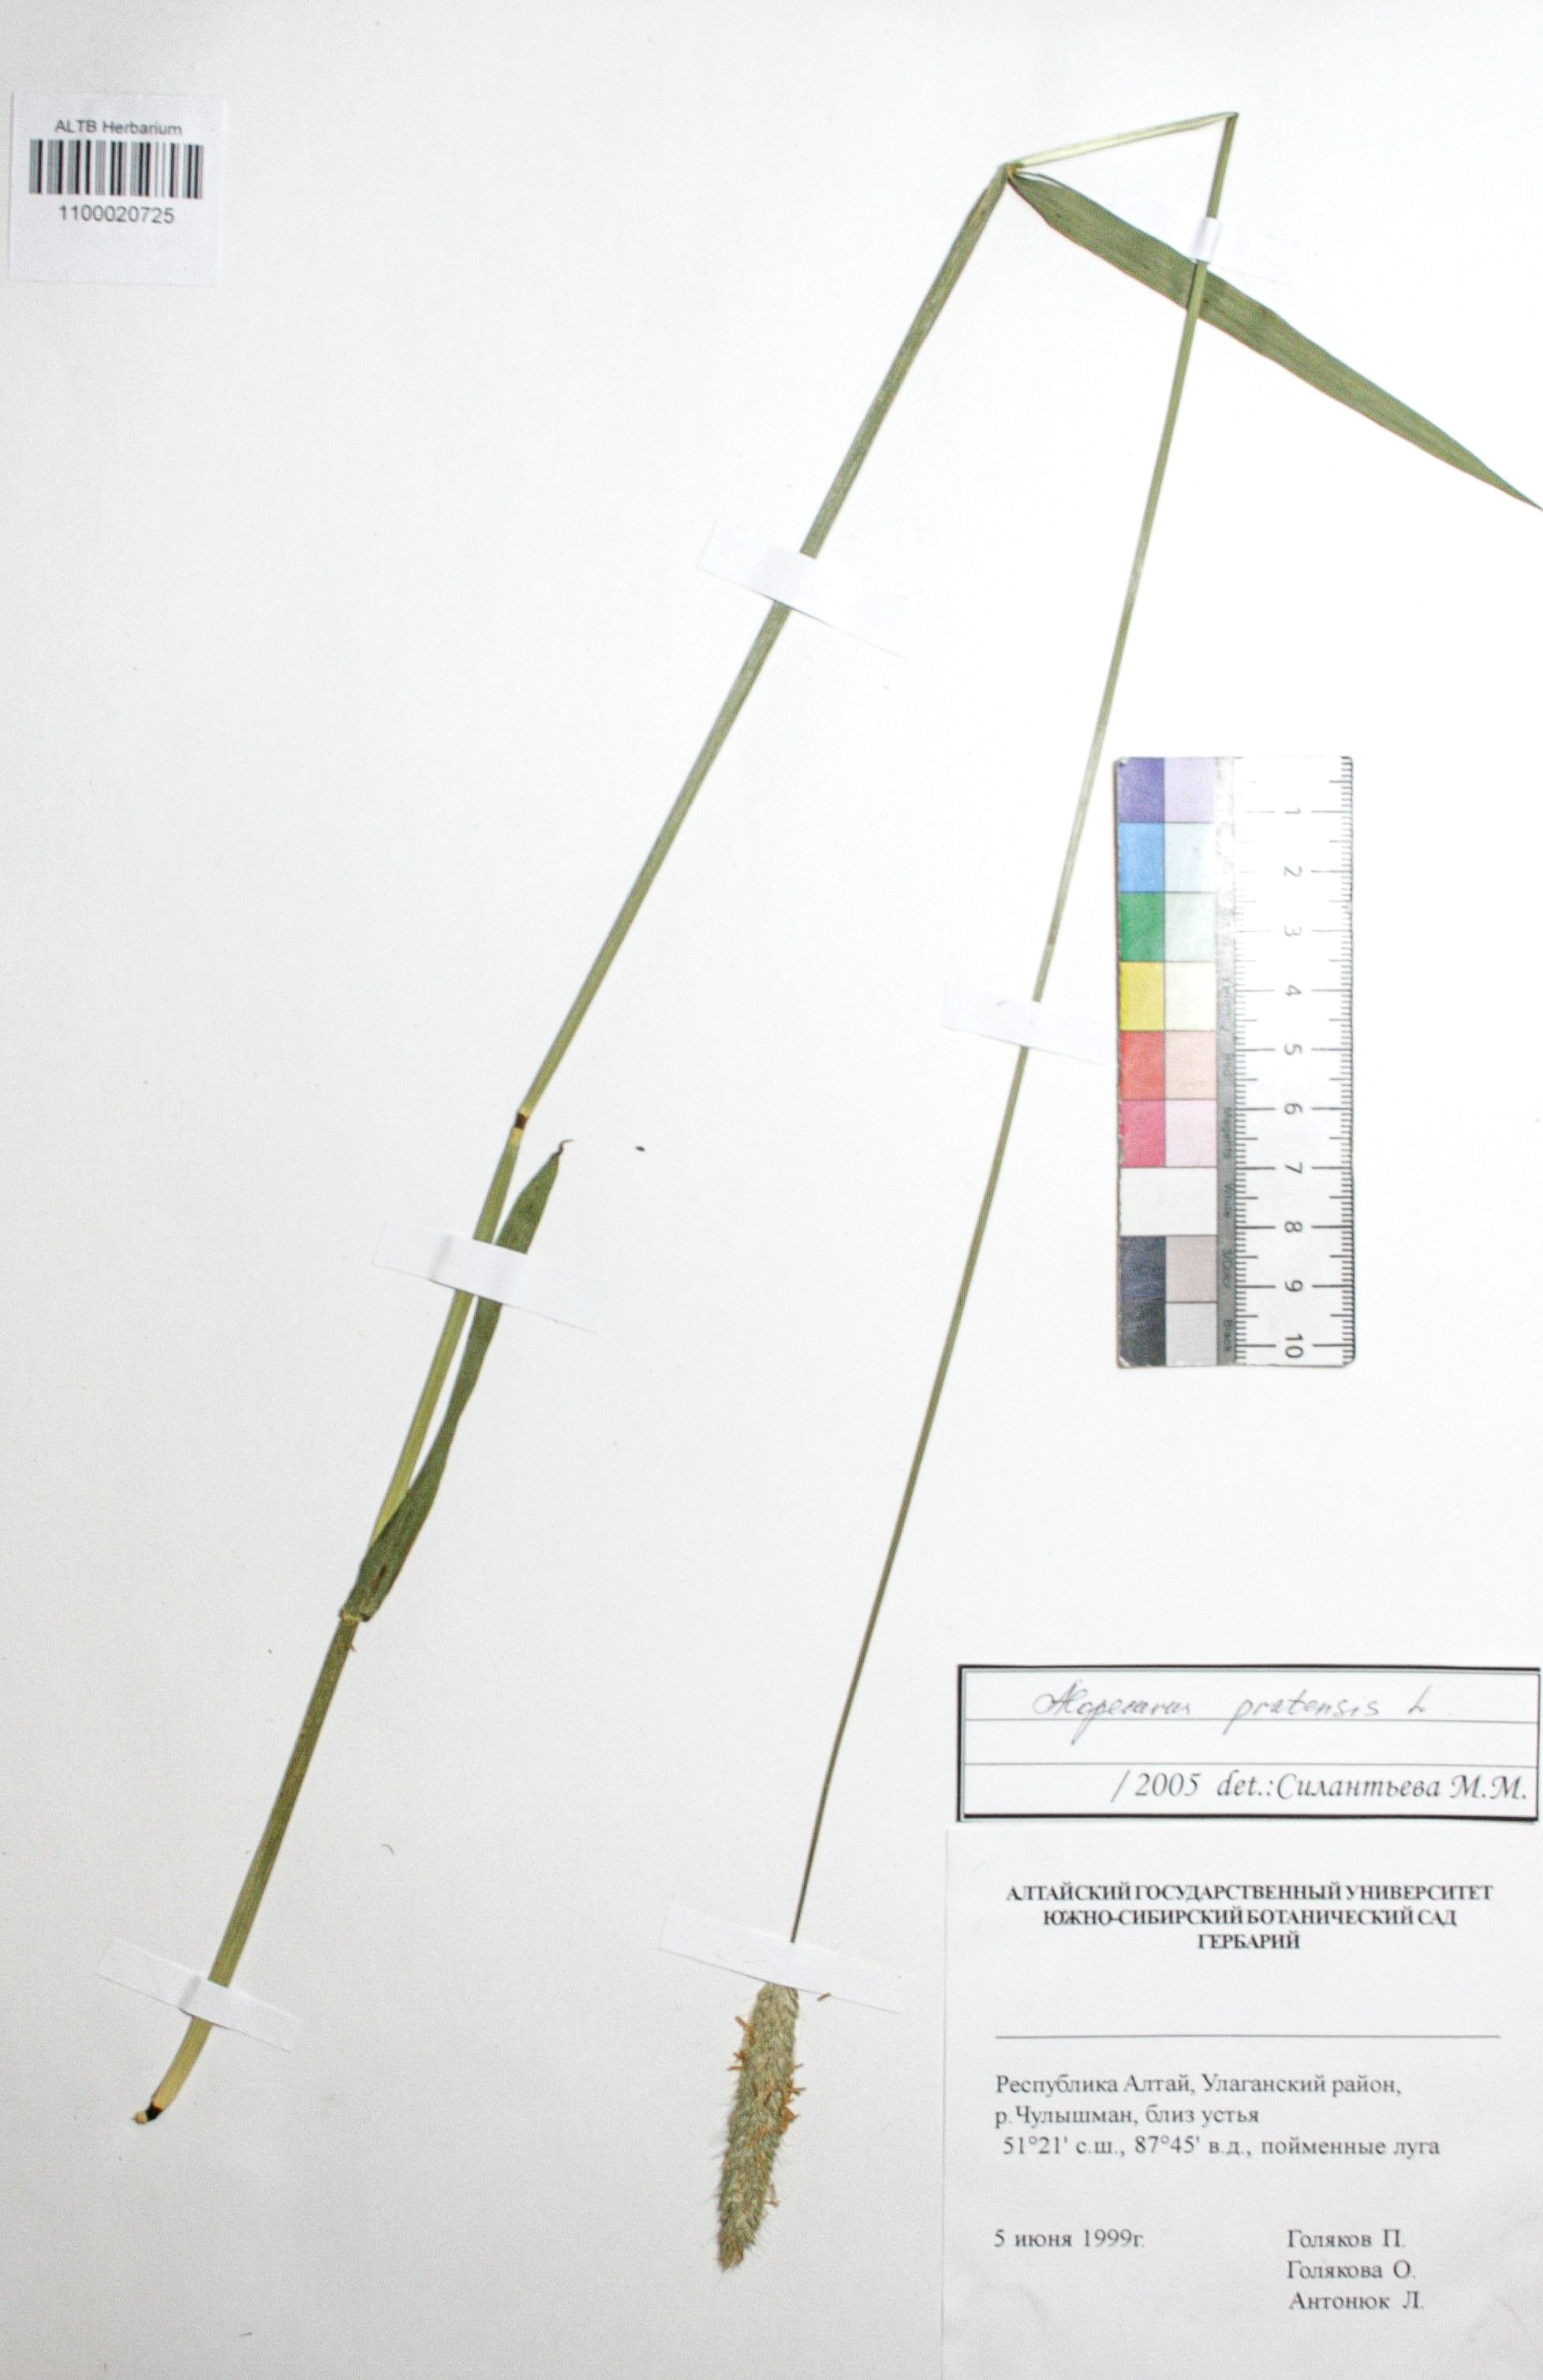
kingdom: Plantae
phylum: Tracheophyta
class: Liliopsida
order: Poales
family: Poaceae
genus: Alopecurus
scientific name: Alopecurus pratensis
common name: Meadow foxtail
